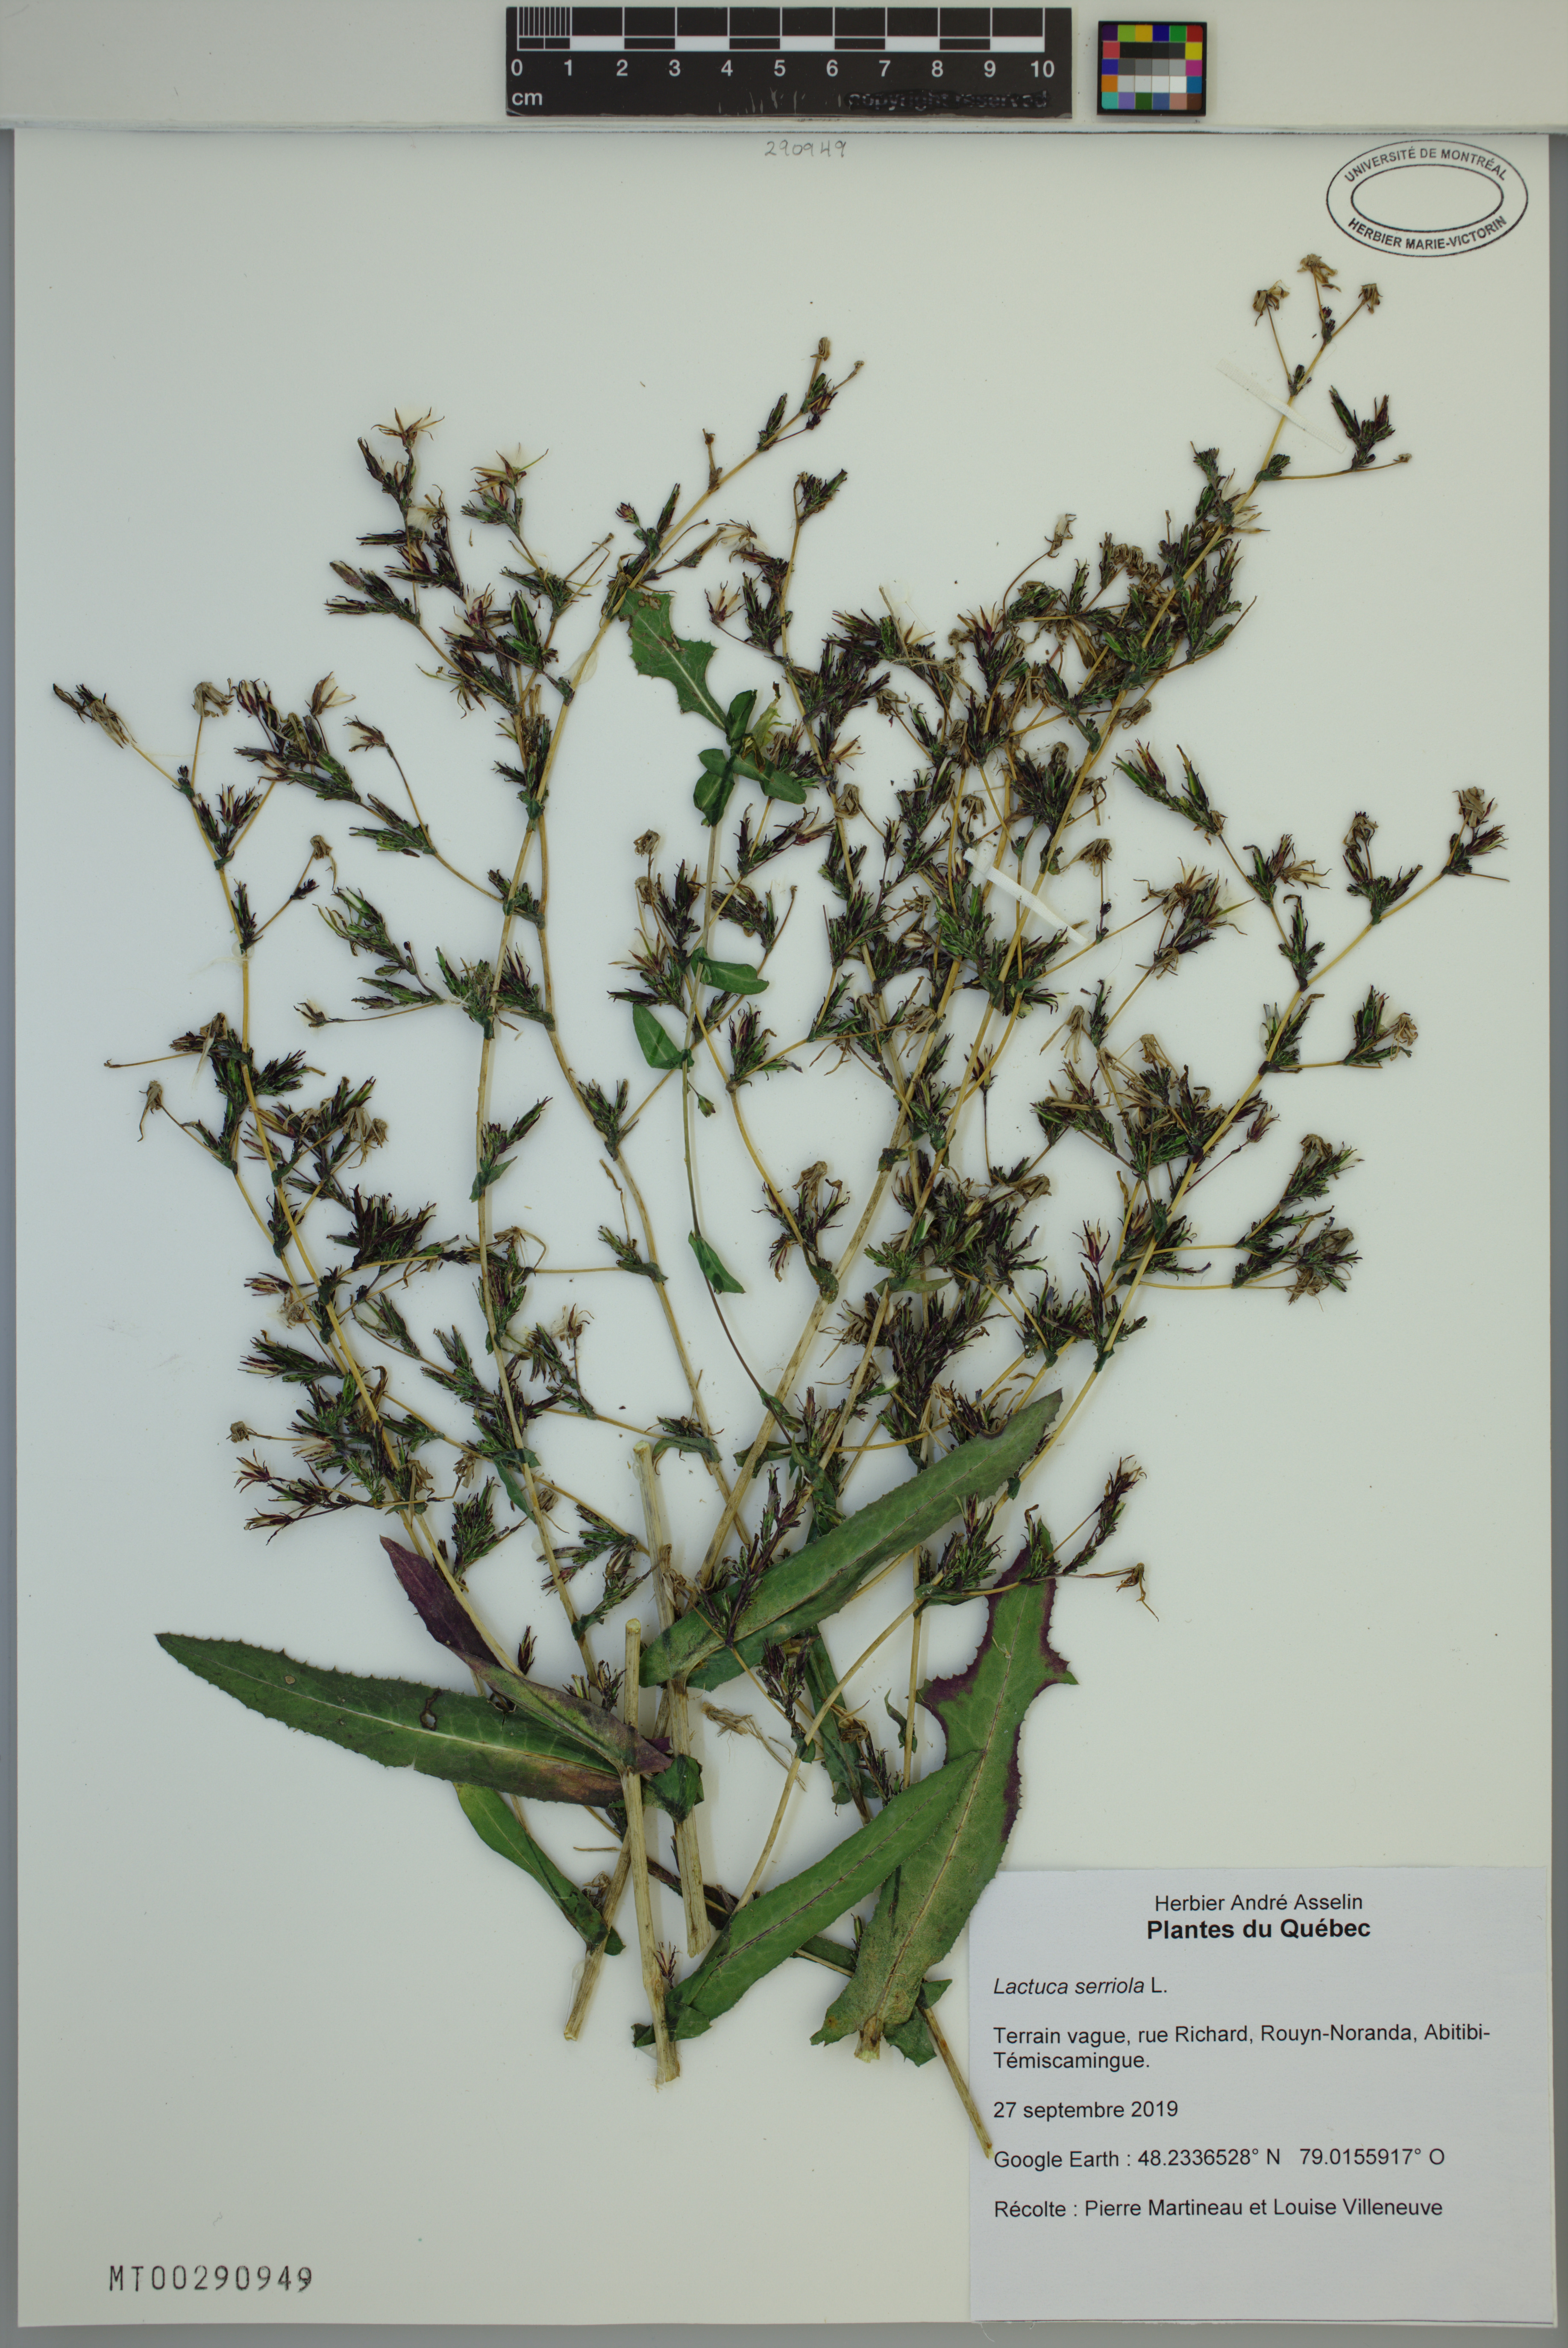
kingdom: Plantae
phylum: Tracheophyta
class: Magnoliopsida
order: Asterales
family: Asteraceae
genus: Lactuca
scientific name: Lactuca serriola
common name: Prickly lettuce
